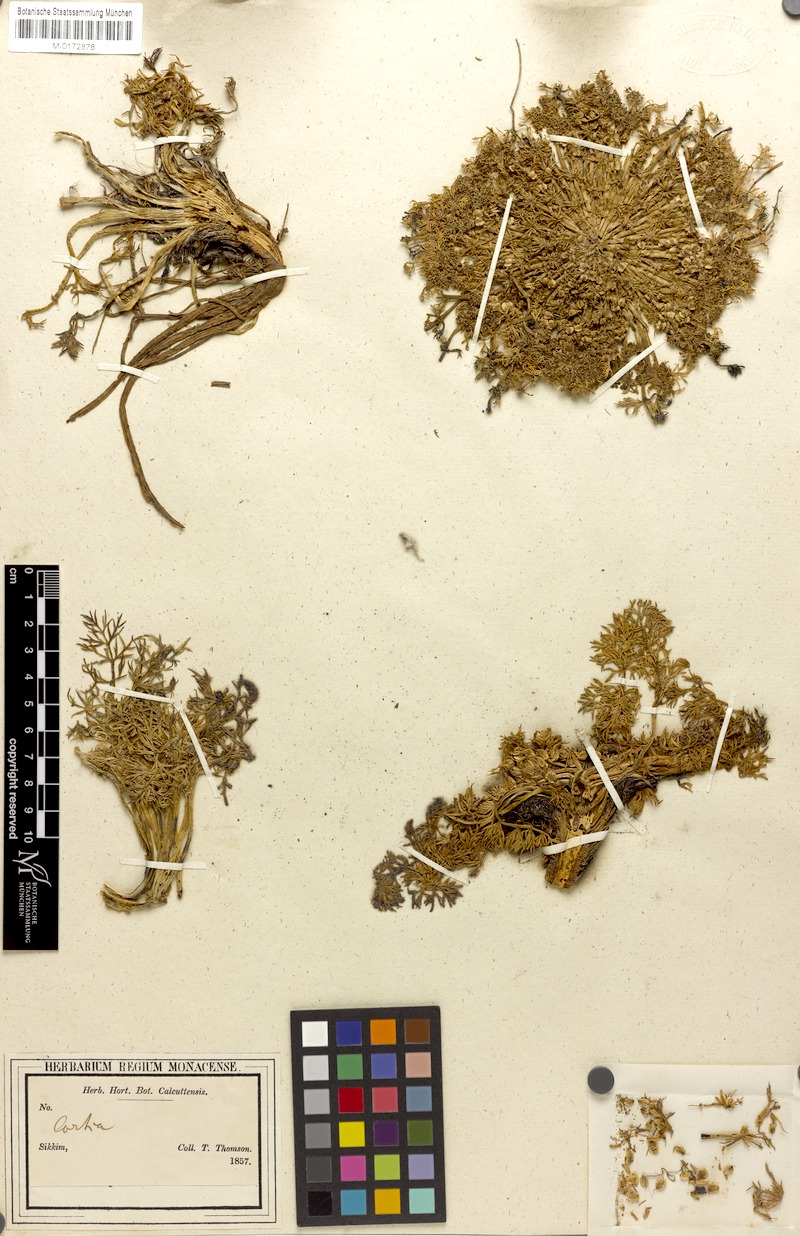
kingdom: Plantae
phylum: Tracheophyta
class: Magnoliopsida
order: Apiales
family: Apiaceae
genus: Cortiella
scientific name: Cortiella hookeri
